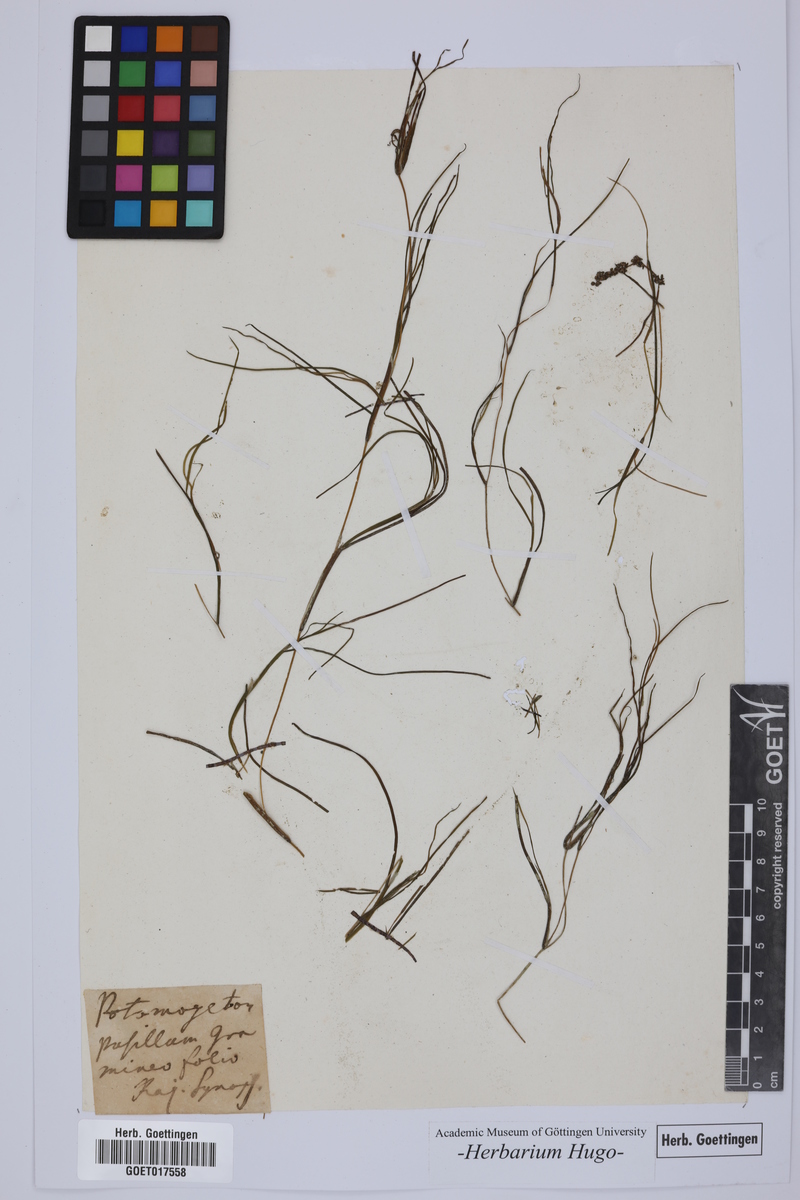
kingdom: Plantae
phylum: Tracheophyta
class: Liliopsida
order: Alismatales
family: Potamogetonaceae
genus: Potamogeton
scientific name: Potamogeton pusillus
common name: Lesser pondweed
